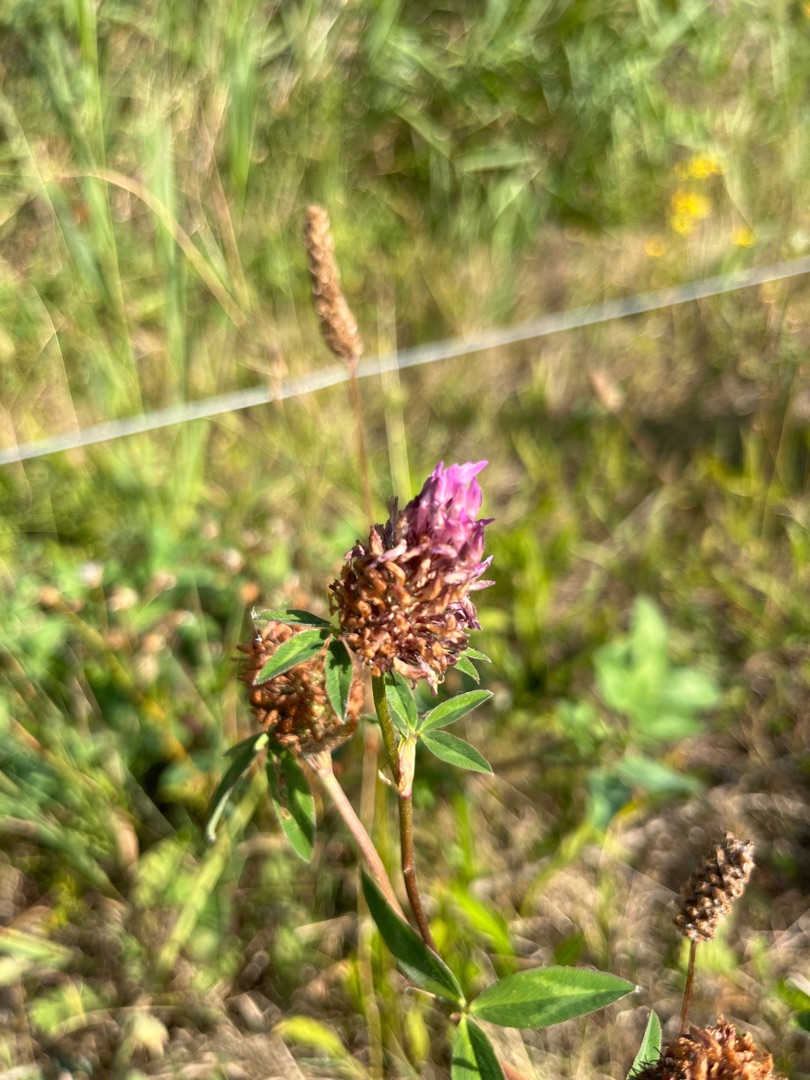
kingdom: Plantae
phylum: Tracheophyta
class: Magnoliopsida
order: Fabales
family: Fabaceae
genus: Trifolium
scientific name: Trifolium pratense
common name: Rød-kløver
